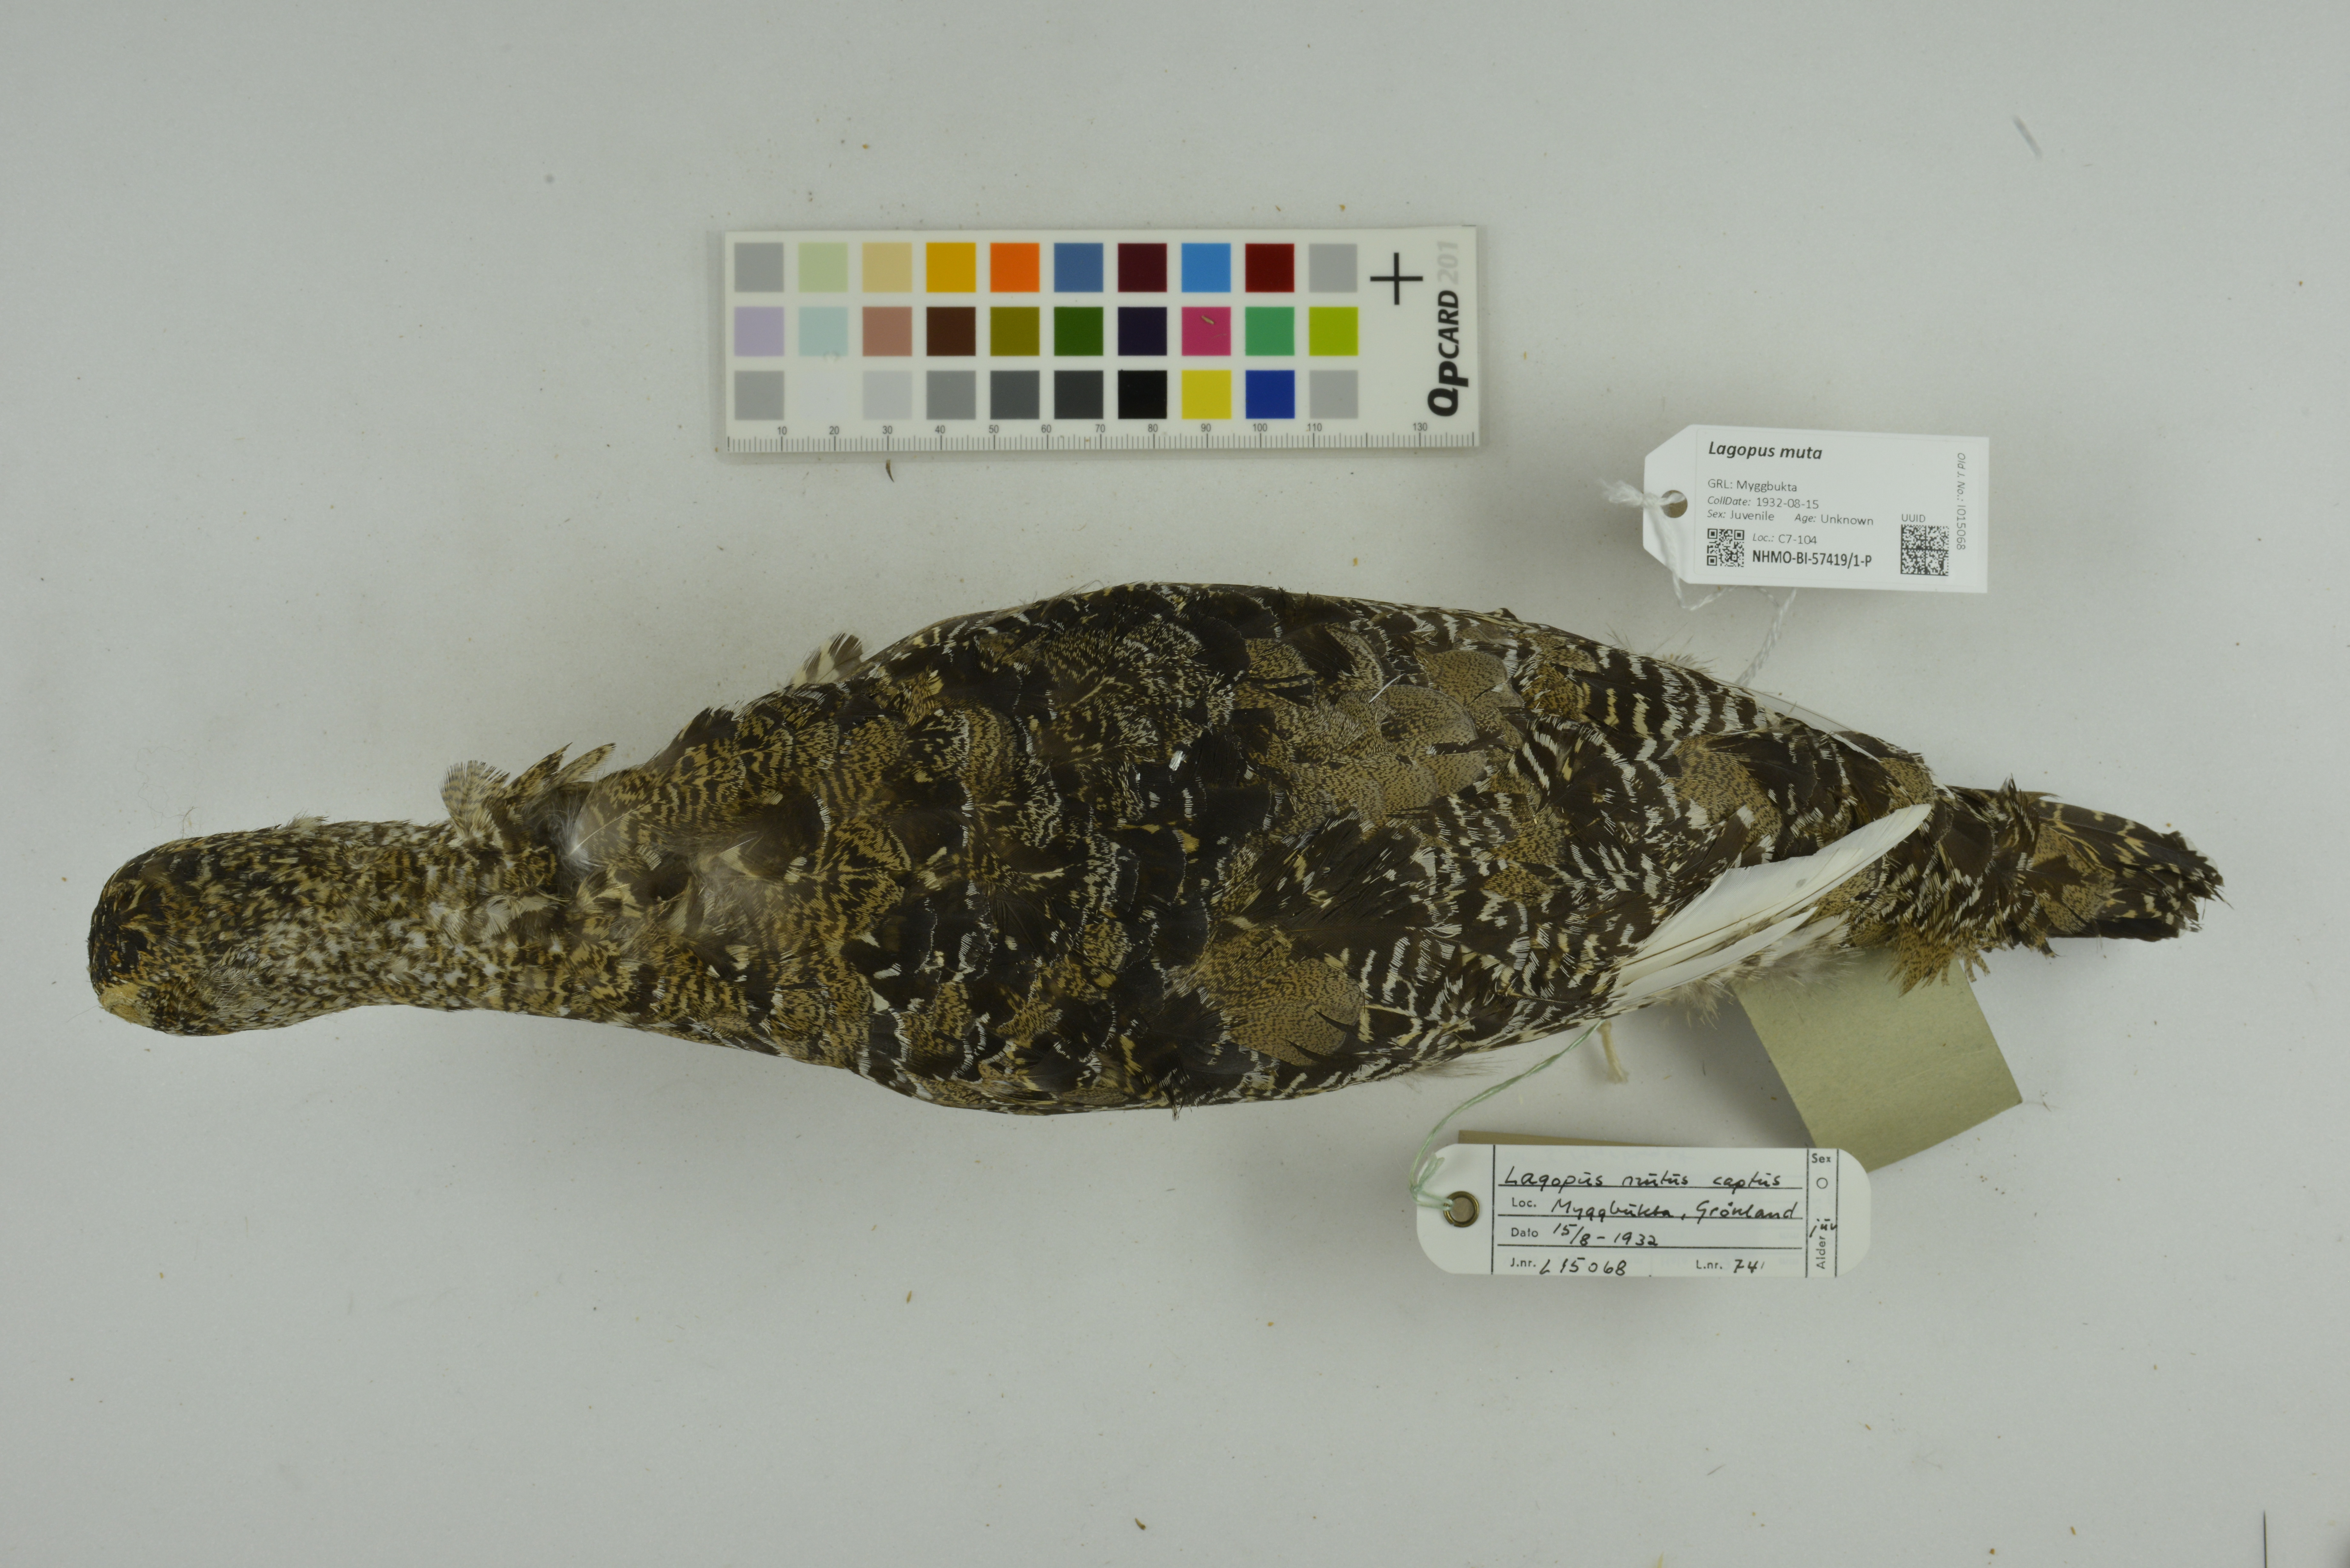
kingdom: Animalia
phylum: Chordata
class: Aves
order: Galliformes
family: Phasianidae
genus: Lagopus
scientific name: Lagopus muta
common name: Rock ptarmigan
